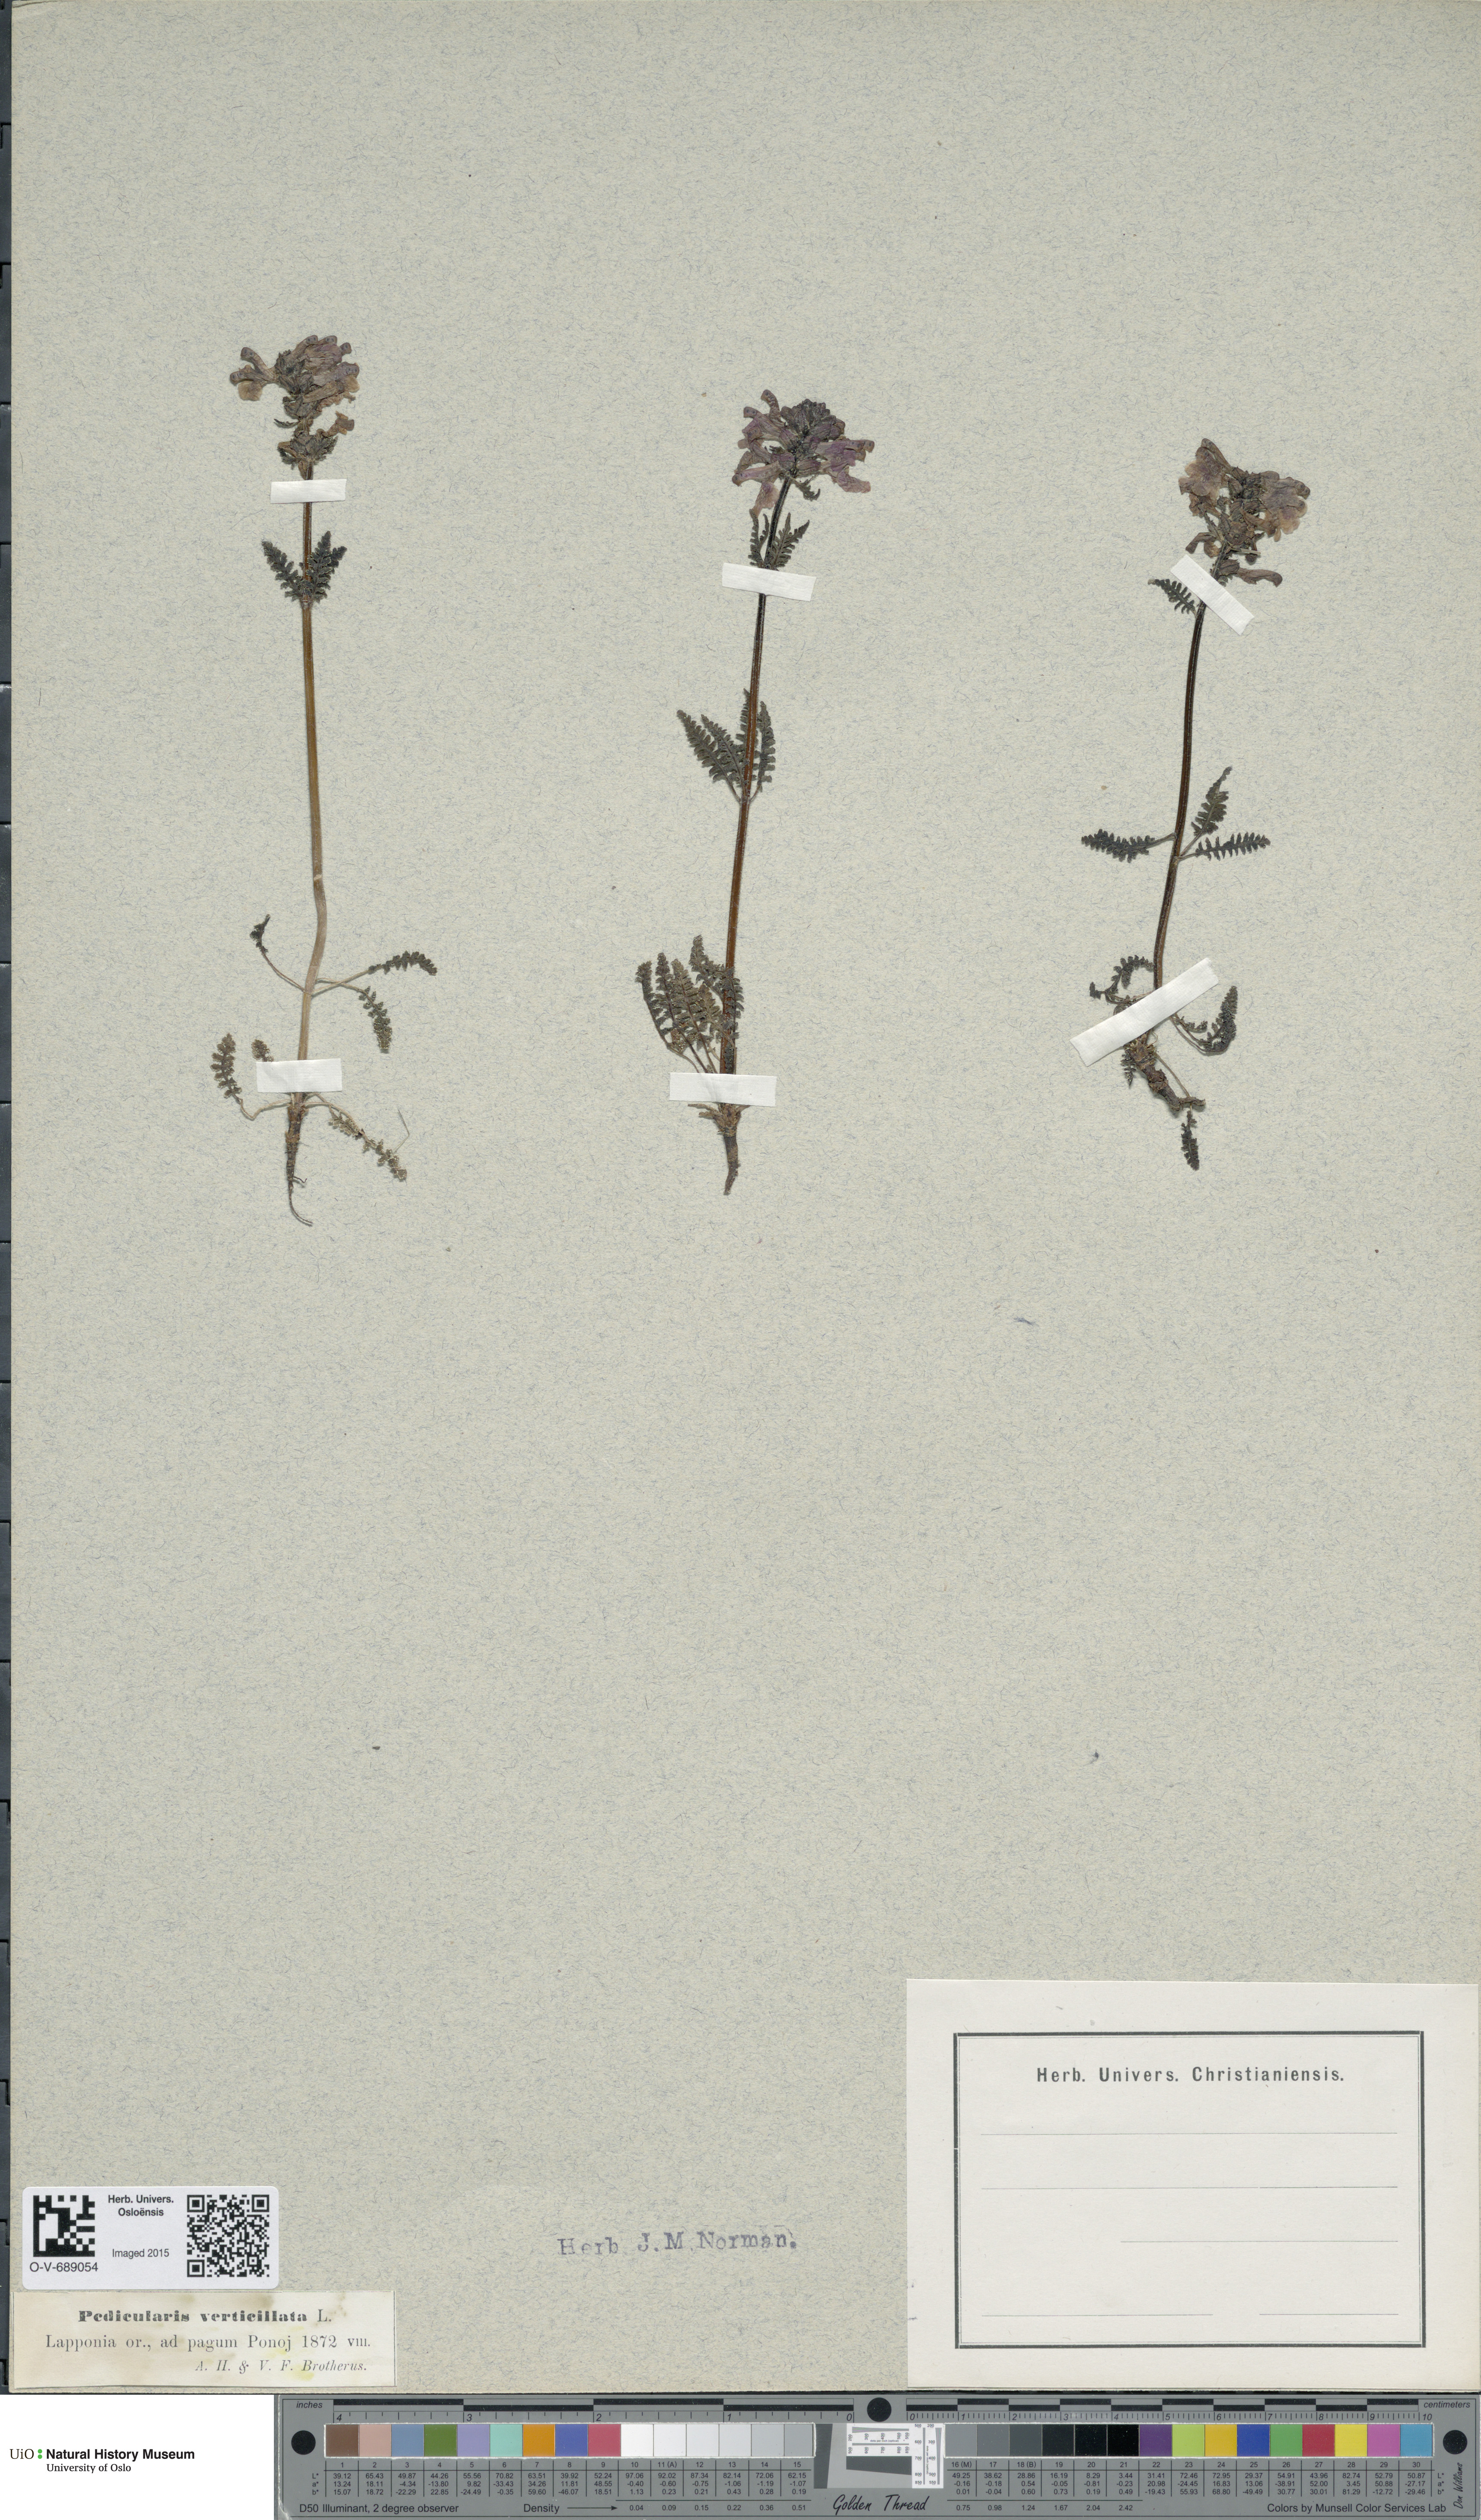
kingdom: Plantae
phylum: Tracheophyta
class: Magnoliopsida
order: Lamiales
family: Orobanchaceae
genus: Pedicularis
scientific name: Pedicularis verticillata
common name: Whorled lousewort
